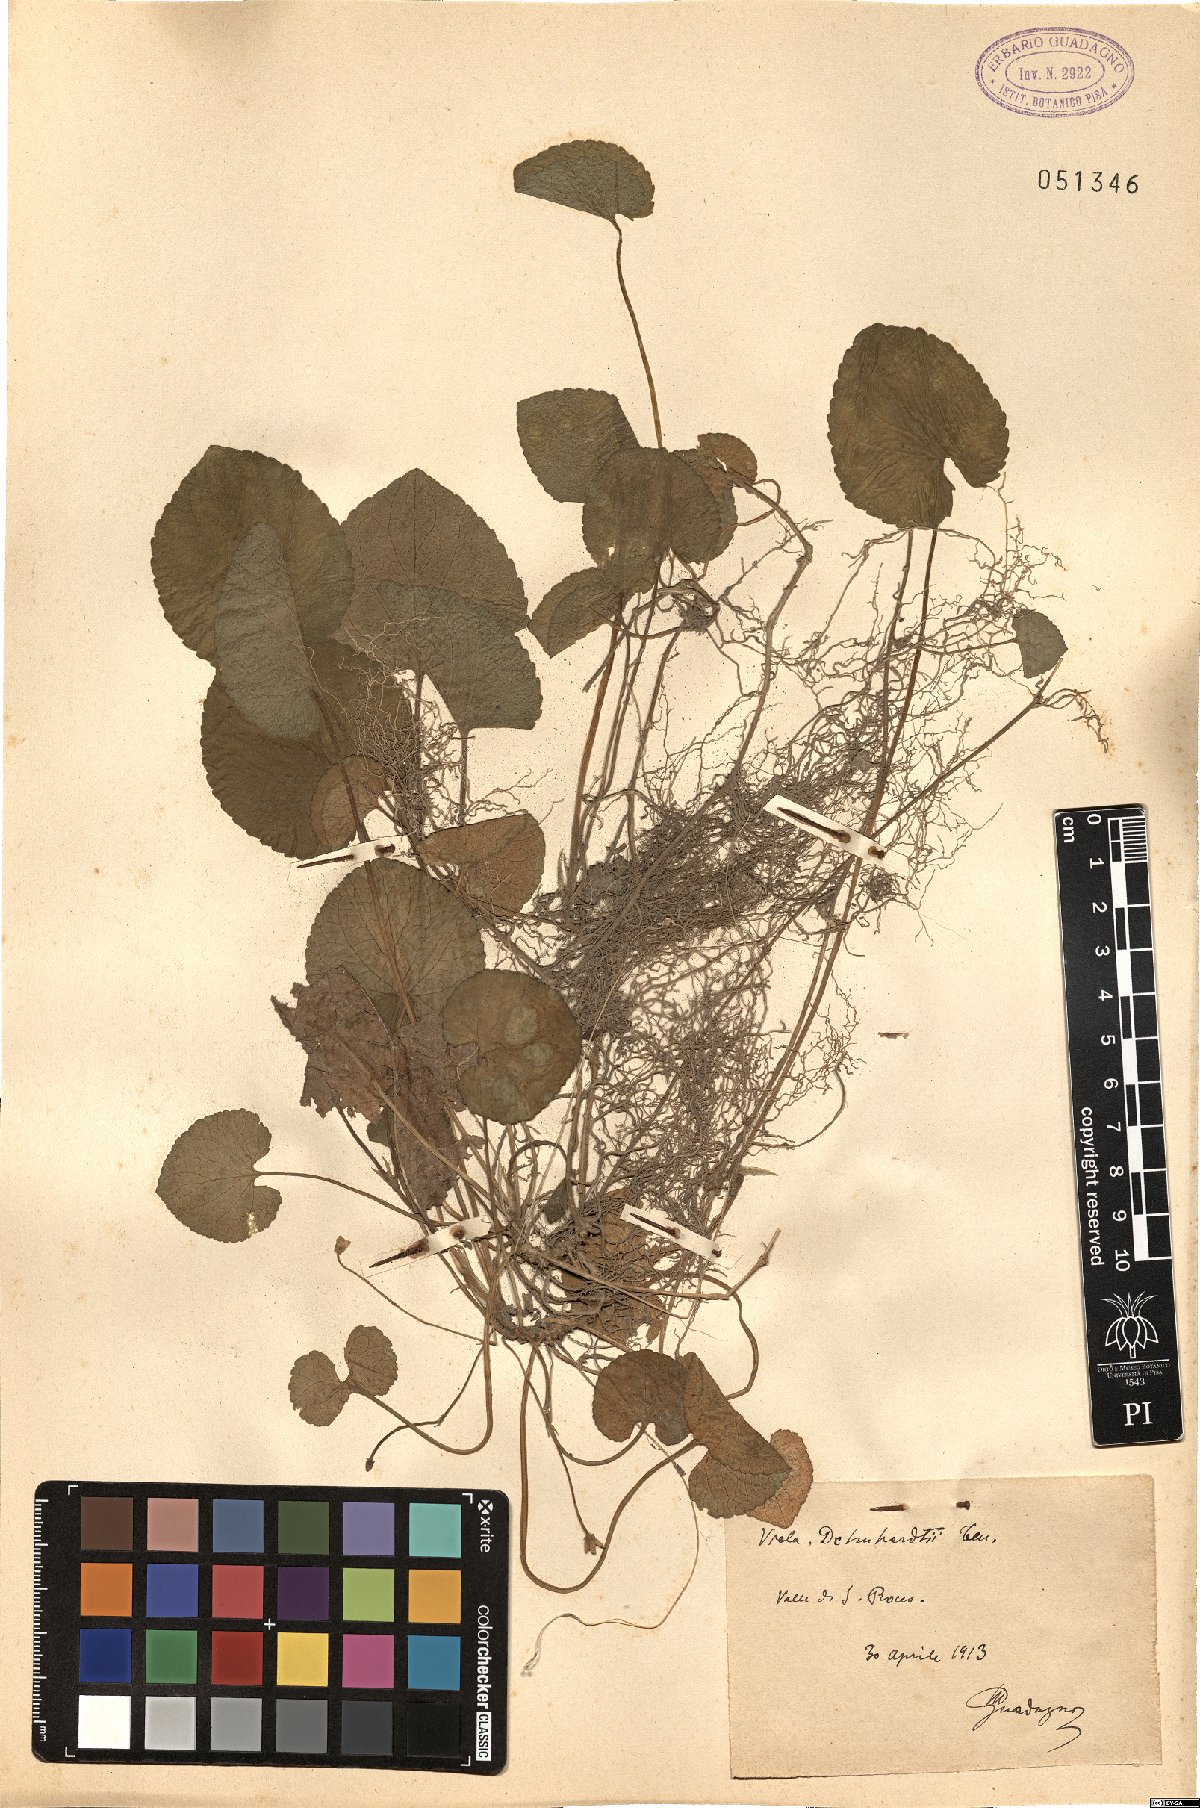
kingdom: Plantae
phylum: Tracheophyta
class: Magnoliopsida
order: Malpighiales
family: Violaceae
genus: Viola
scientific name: Viola alba
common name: White violet
